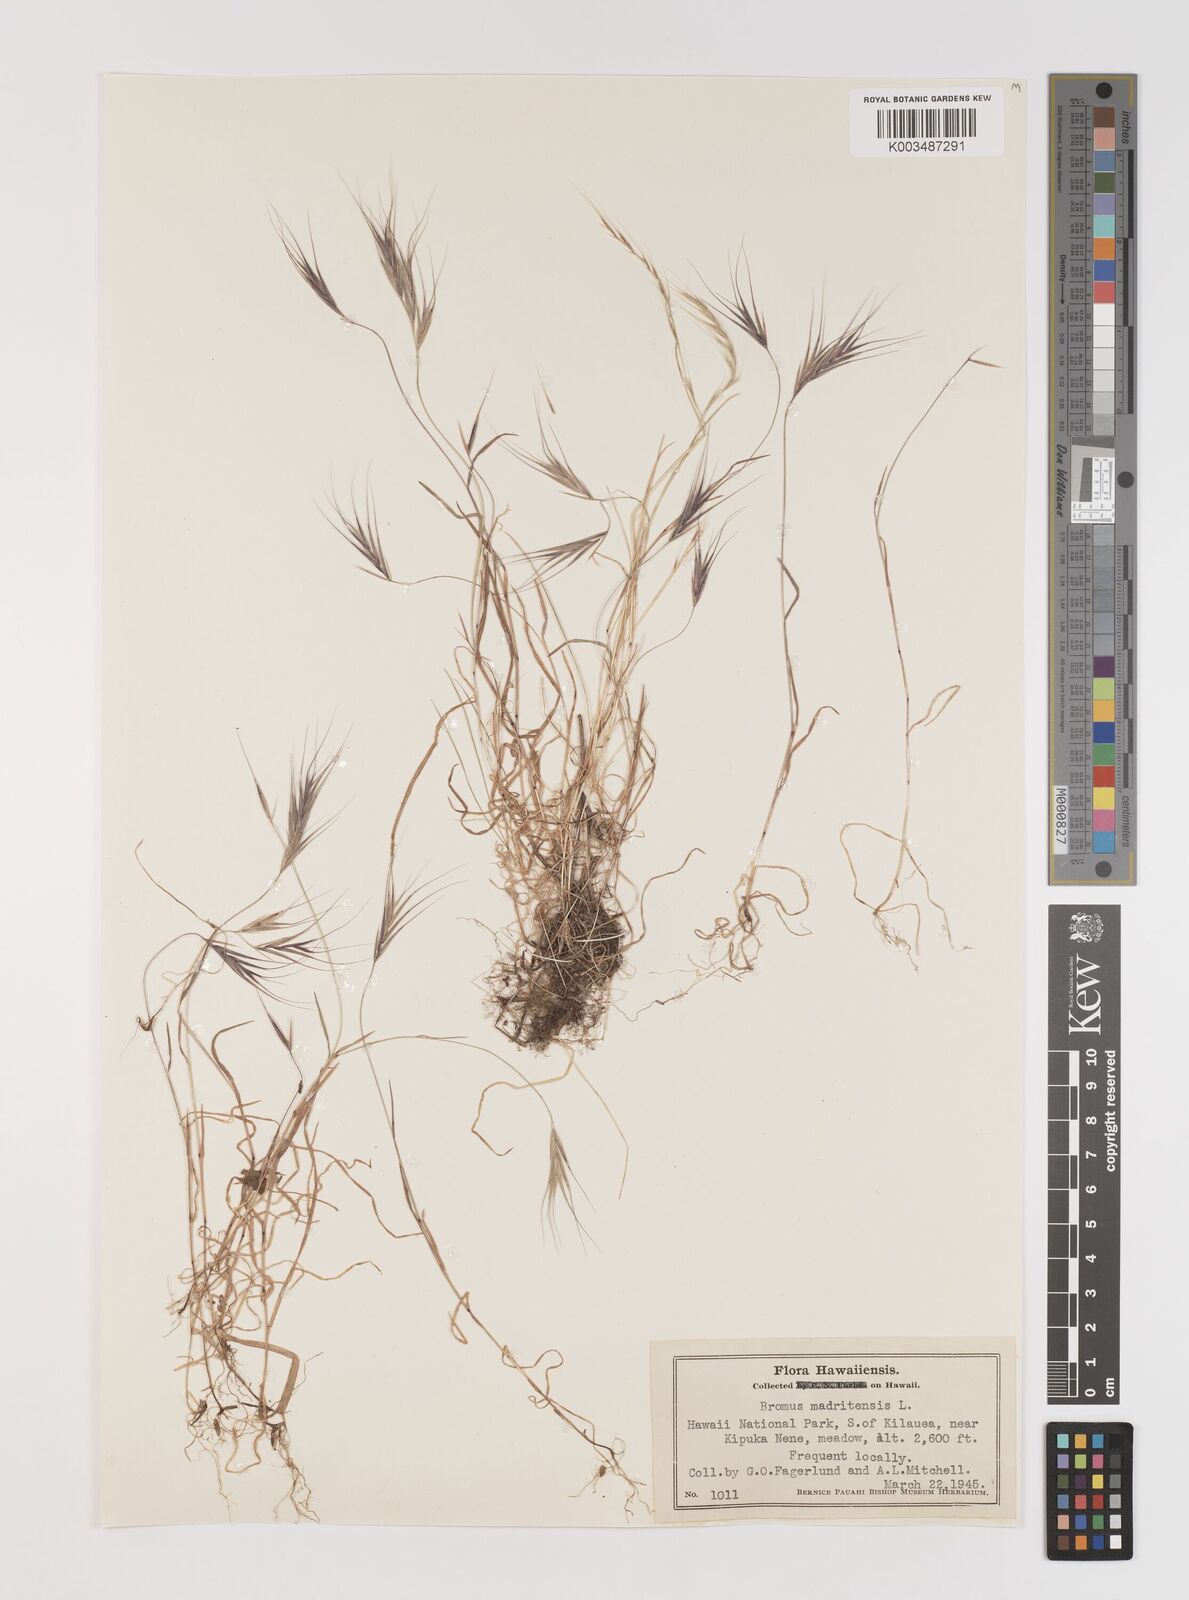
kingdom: Plantae
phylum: Tracheophyta
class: Liliopsida
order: Poales
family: Poaceae
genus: Bromus
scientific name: Bromus madritensis
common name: Compact brome
